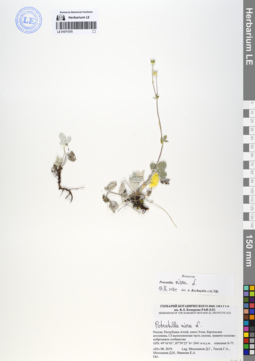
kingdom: Plantae
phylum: Tracheophyta
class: Magnoliopsida
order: Rosales
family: Rosaceae
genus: Potentilla
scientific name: Potentilla nivea
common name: Snow cinquefoil
